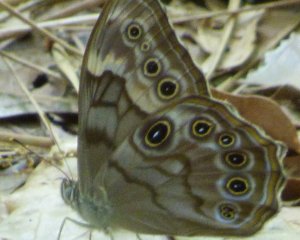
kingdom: Animalia
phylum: Arthropoda
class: Insecta
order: Lepidoptera
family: Nymphalidae
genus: Lethe
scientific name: Lethe creola
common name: Creole Pearly-Eye
